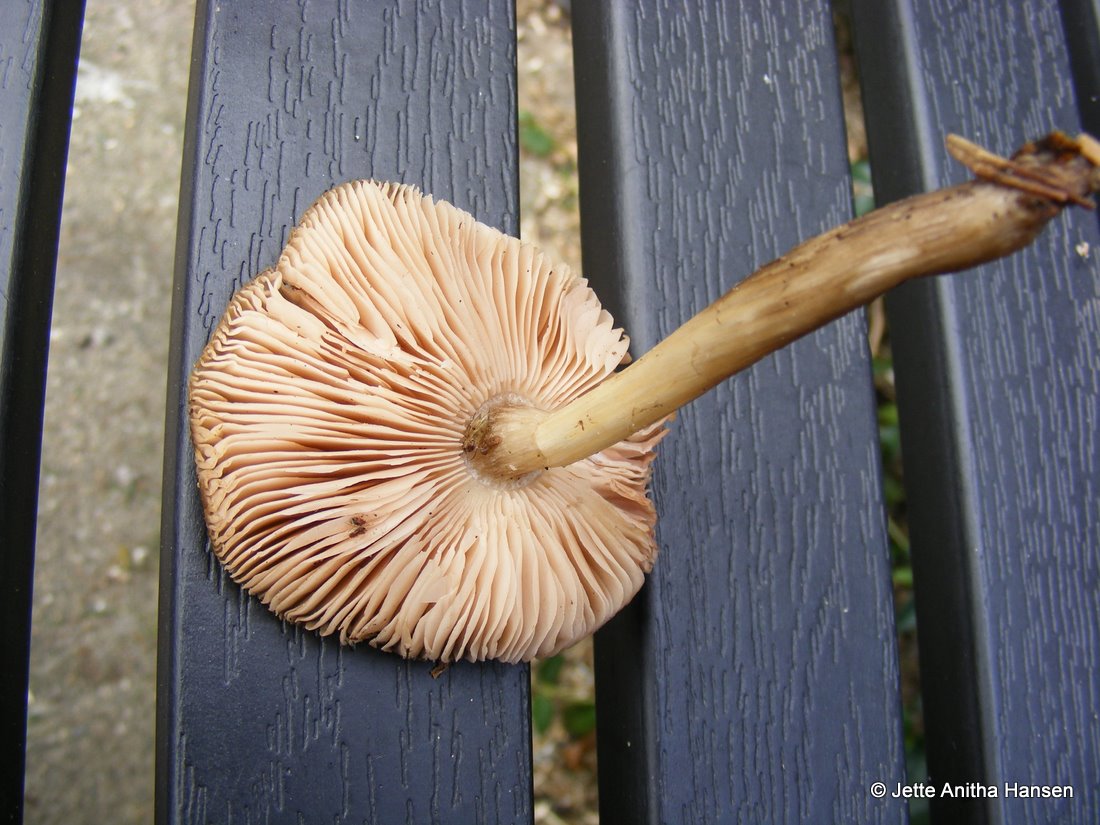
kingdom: Fungi
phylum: Basidiomycota
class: Agaricomycetes
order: Agaricales
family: Pluteaceae
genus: Pluteus
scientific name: Pluteus cervinus
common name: sodfarvet skærmhat
